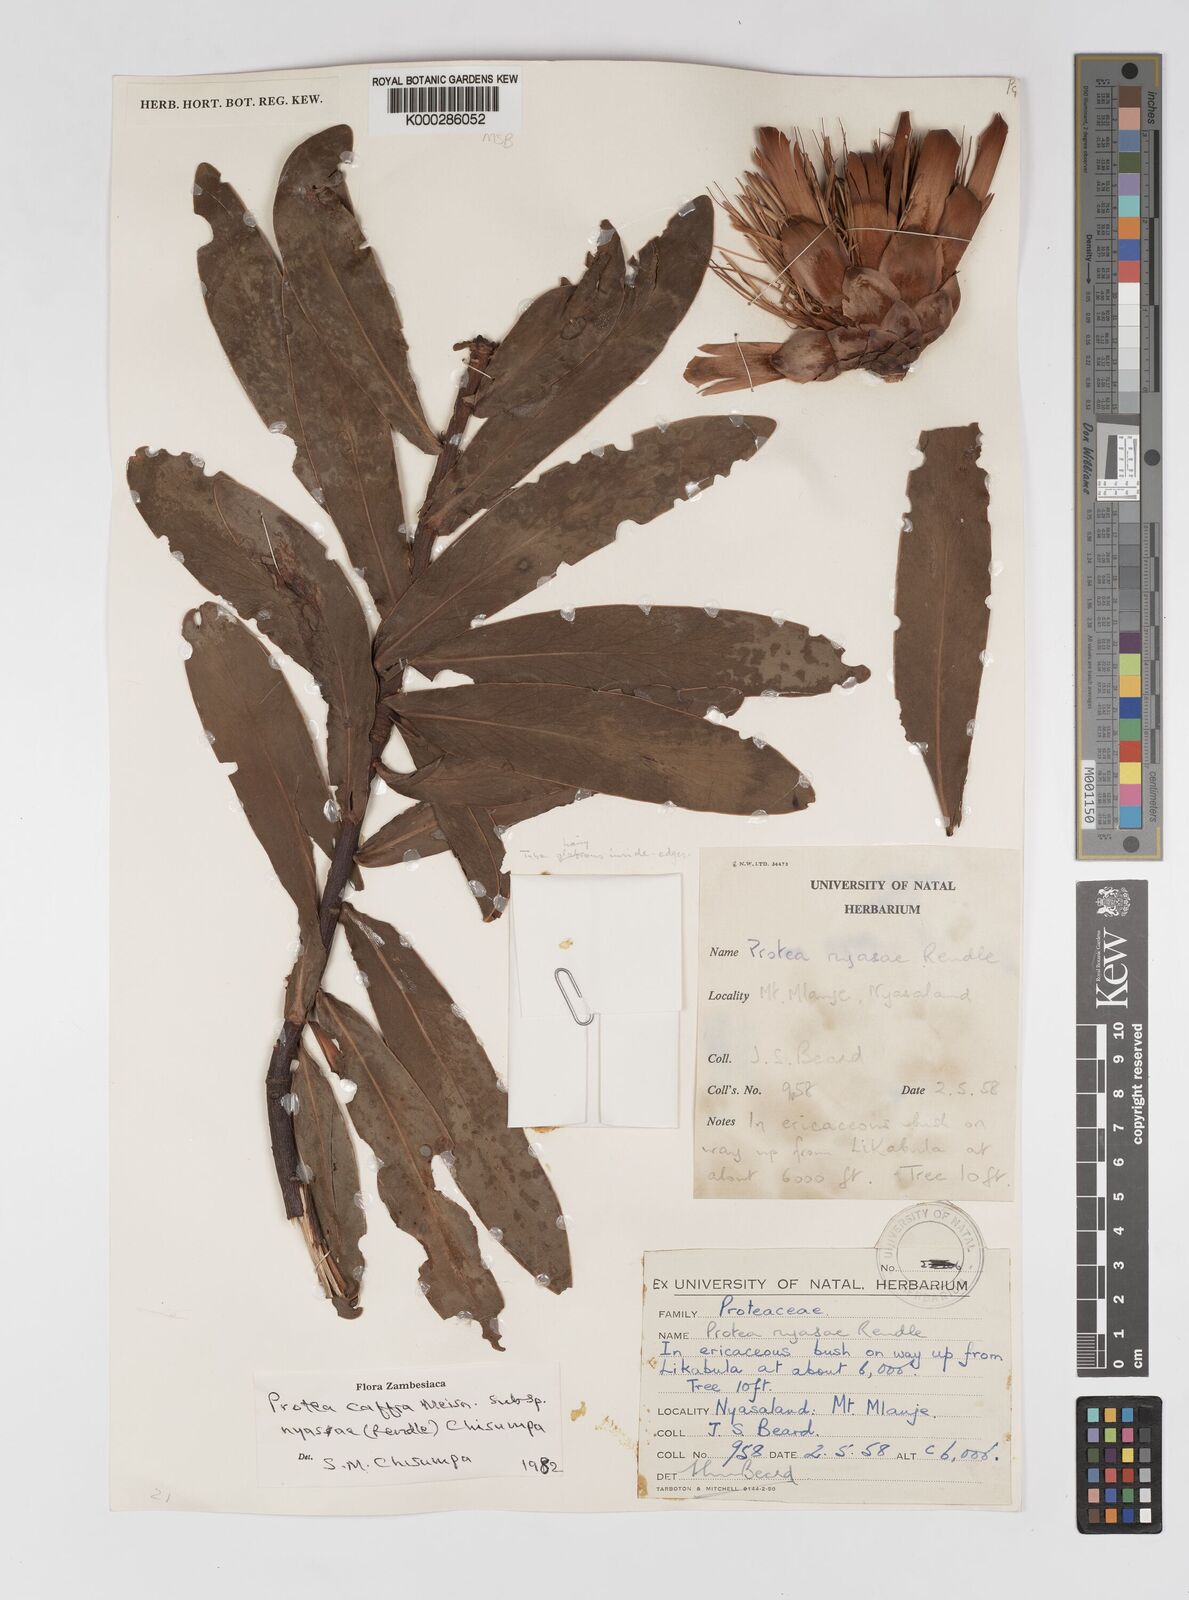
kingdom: Plantae
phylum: Tracheophyta
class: Magnoliopsida
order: Proteales
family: Proteaceae
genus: Protea
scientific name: Protea caffra
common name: Common sugarbush
